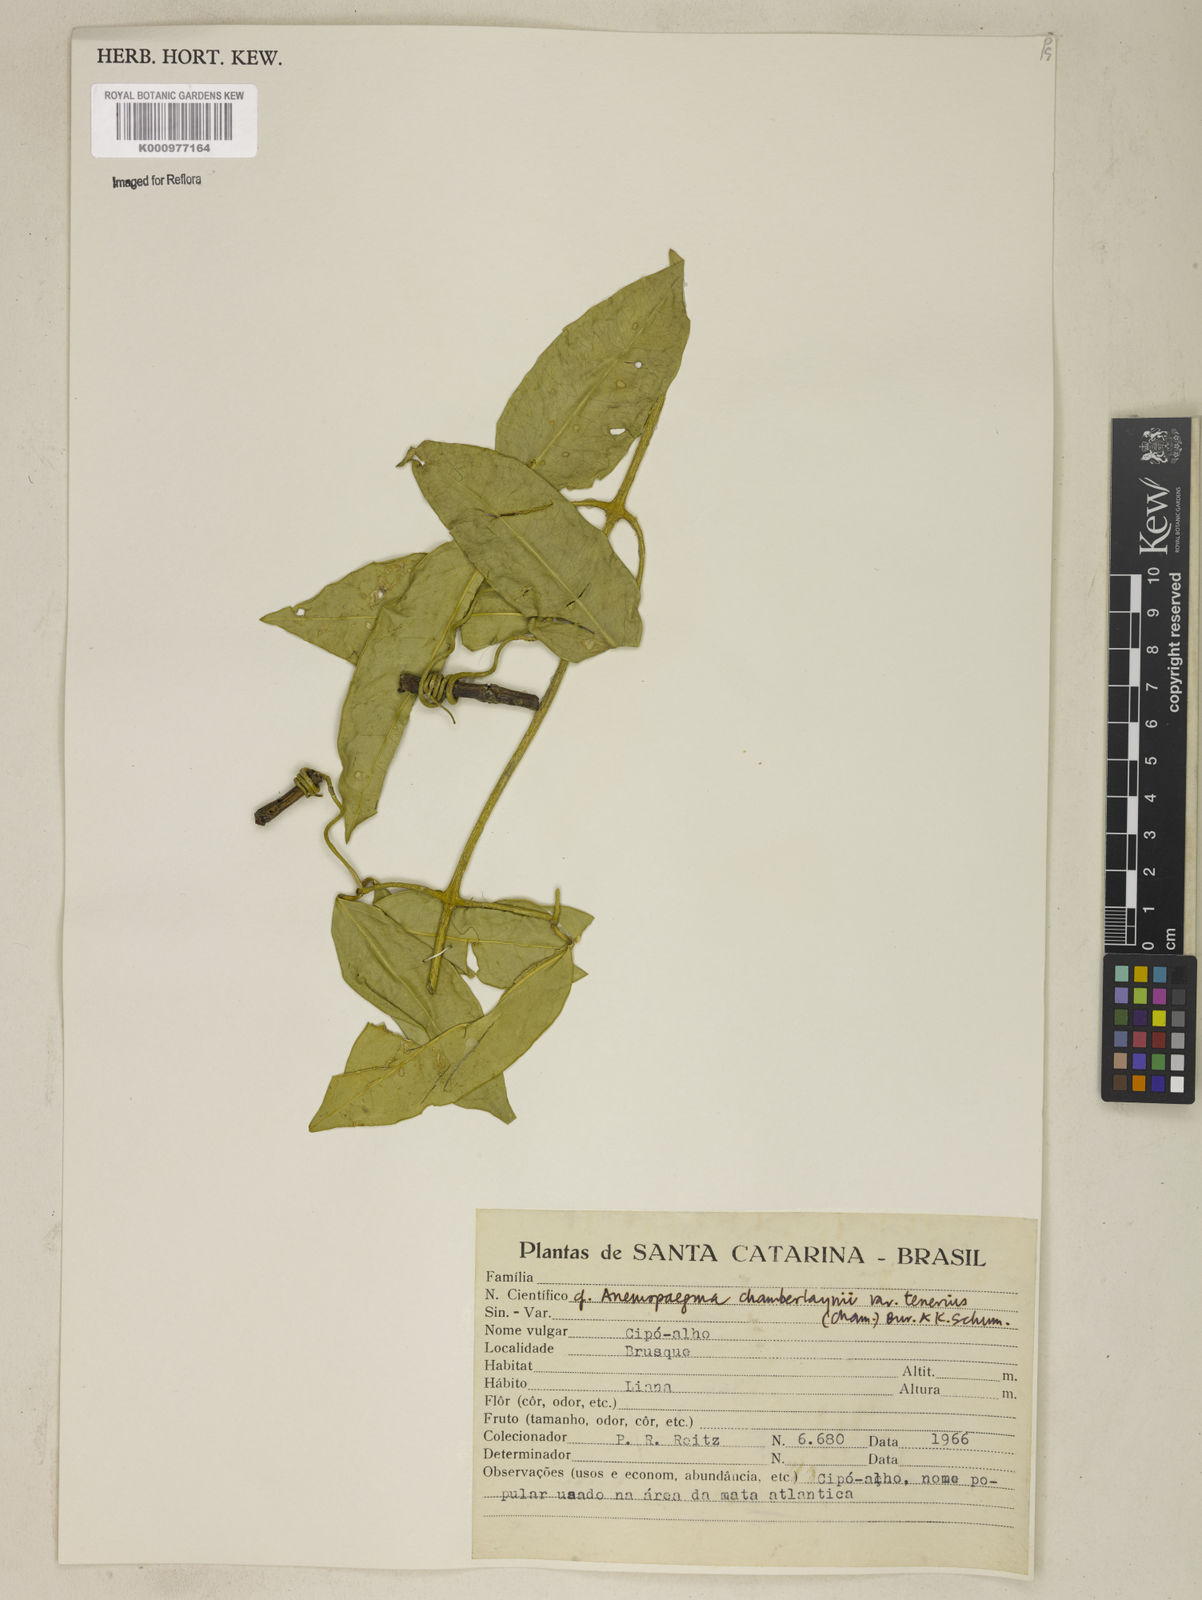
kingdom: Plantae
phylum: Tracheophyta
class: Magnoliopsida
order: Lamiales
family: Bignoniaceae
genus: Anemopaegma
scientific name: Anemopaegma chamberlaynii
